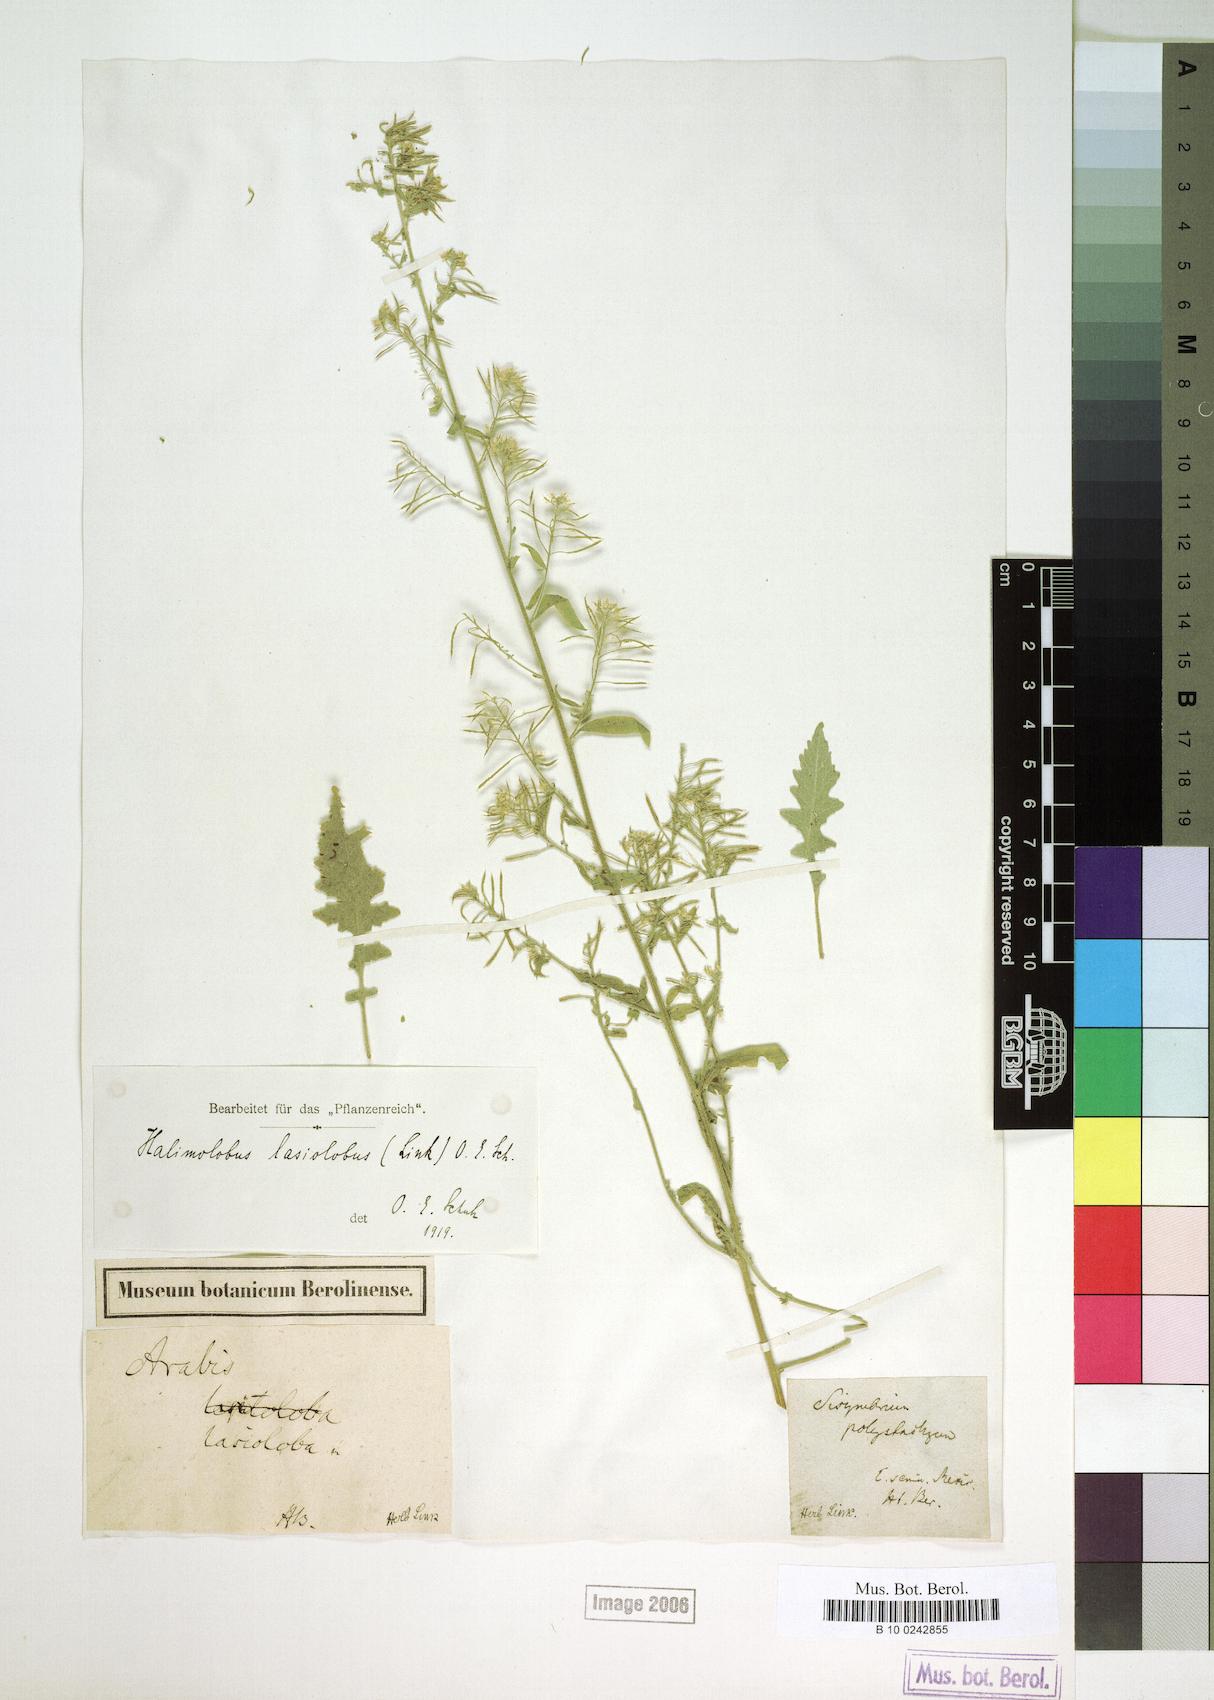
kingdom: Plantae
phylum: Tracheophyta
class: Magnoliopsida
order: Brassicales
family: Brassicaceae
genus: Halimolobos
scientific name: Halimolobos lasiolobus
